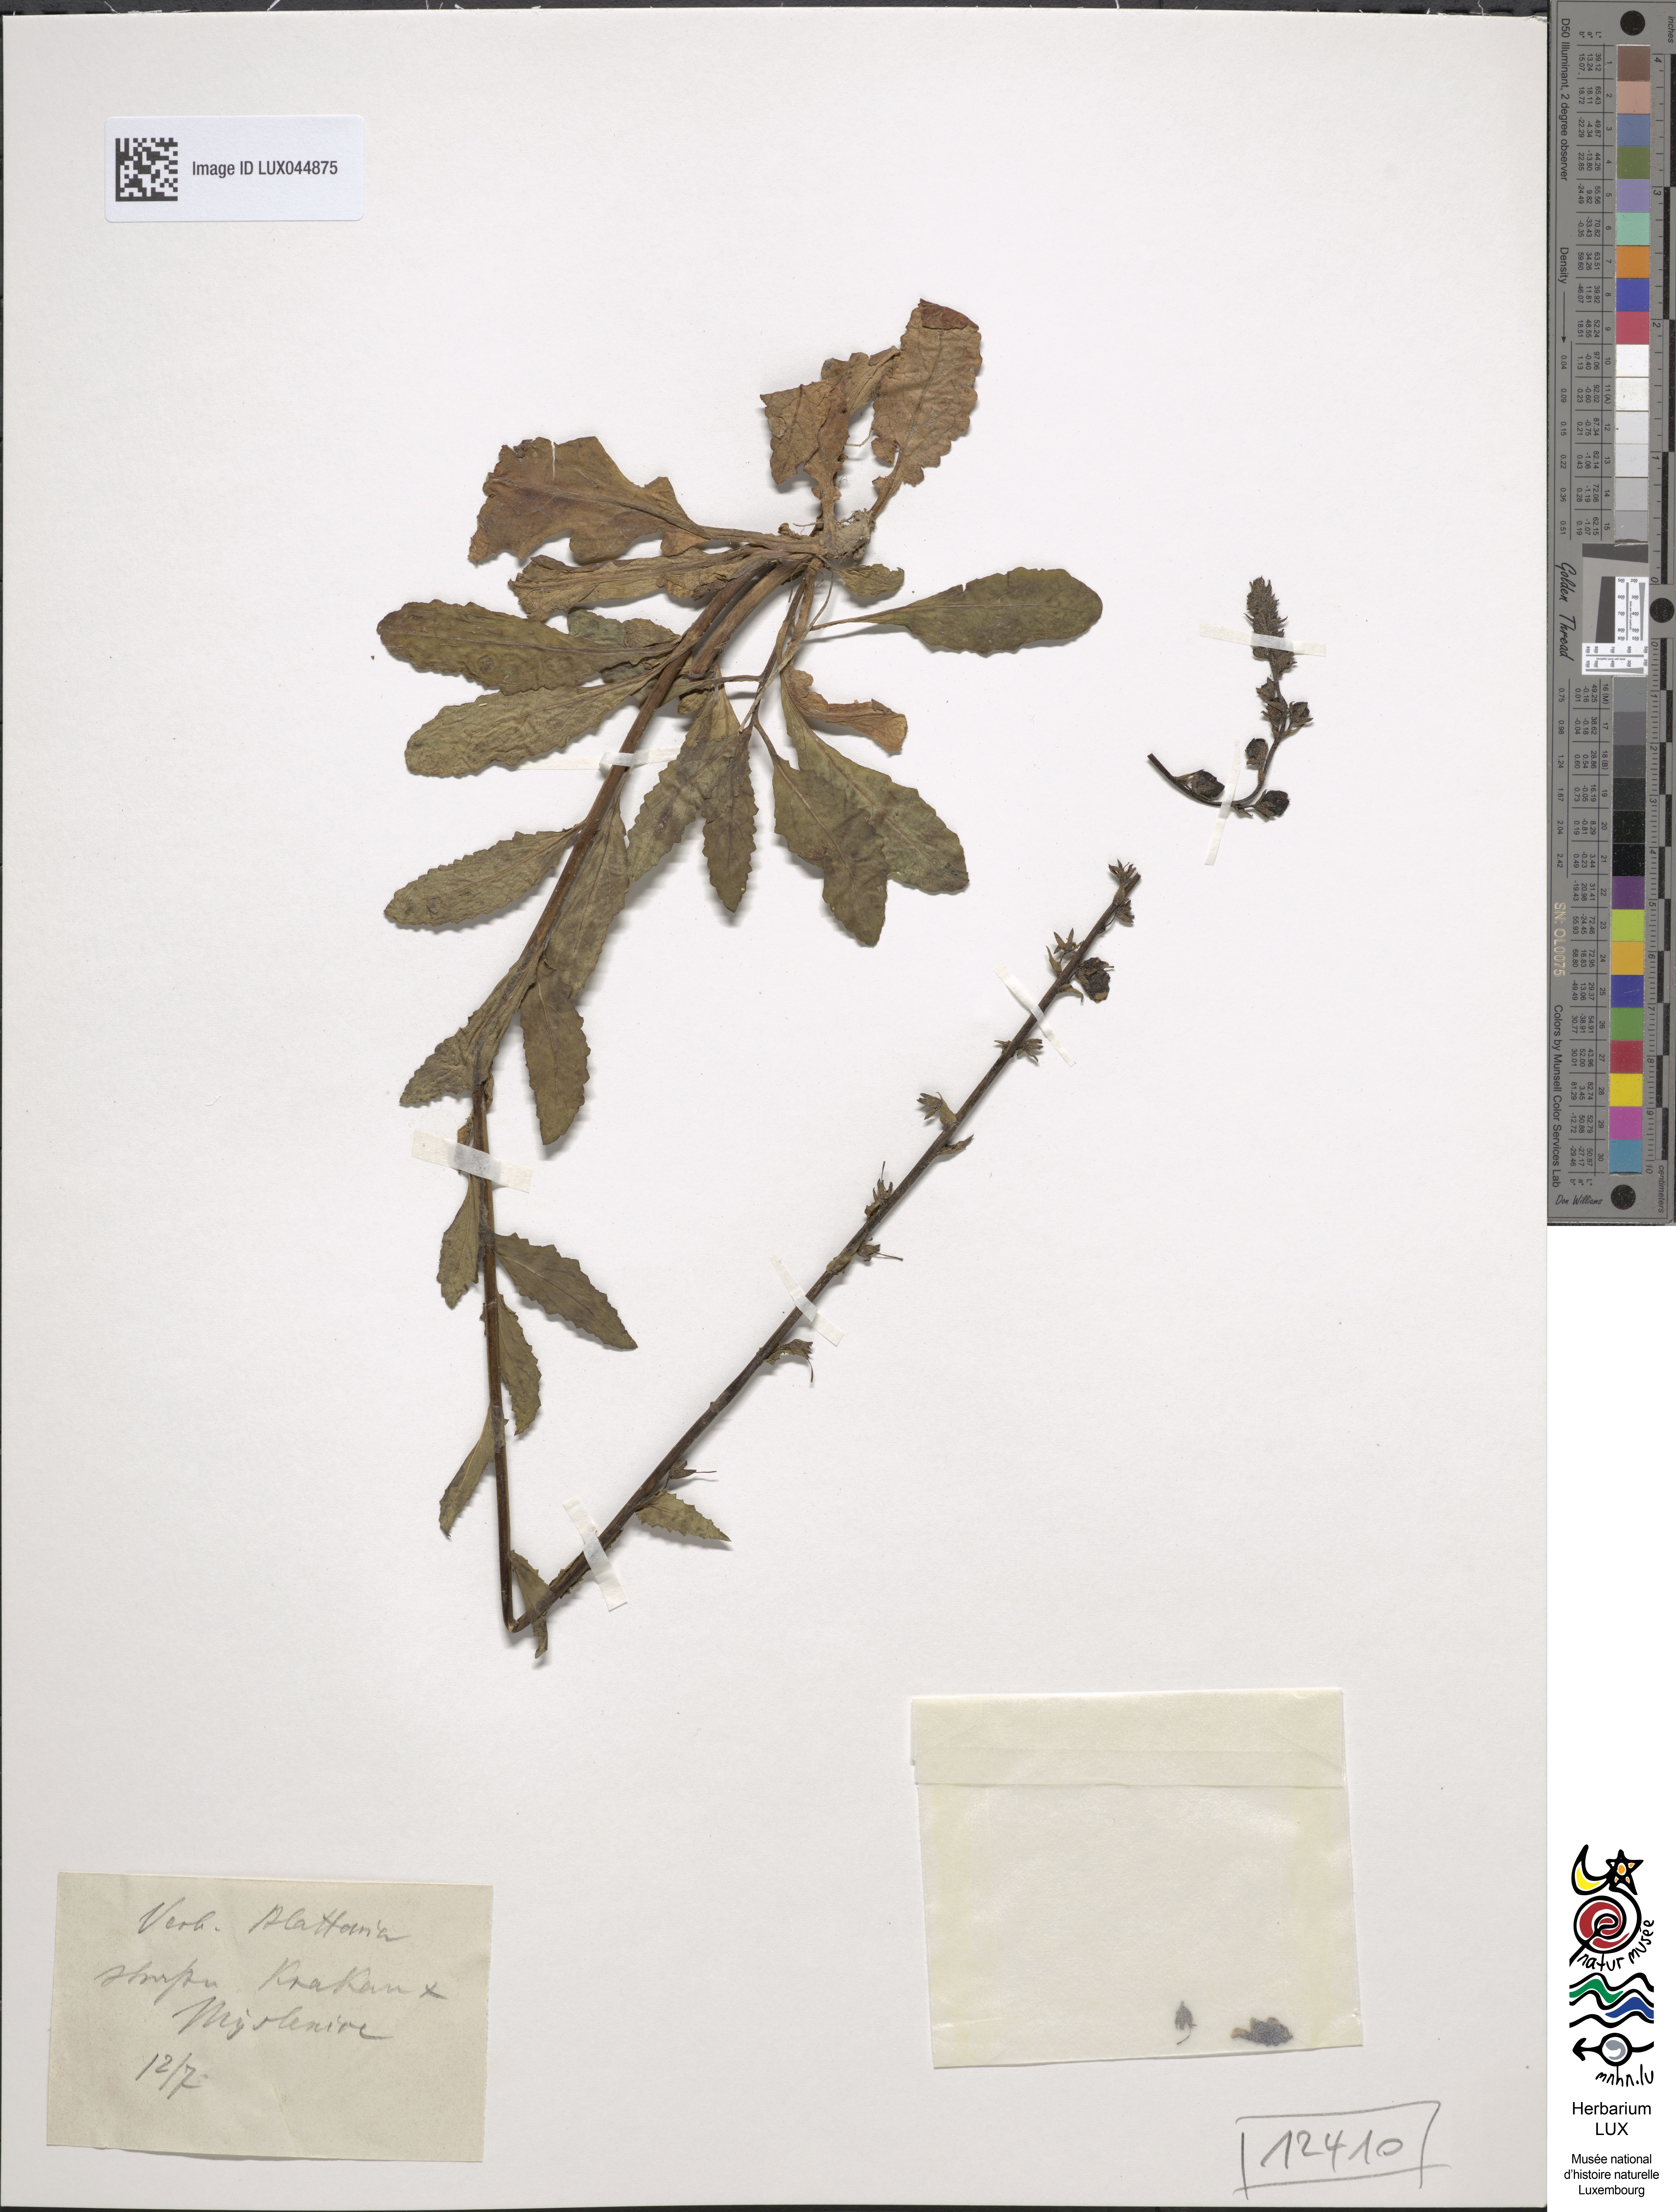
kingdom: Plantae
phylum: Tracheophyta
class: Magnoliopsida
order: Lamiales
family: Scrophulariaceae
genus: Verbascum
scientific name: Verbascum blattaria
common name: Moth mullein
